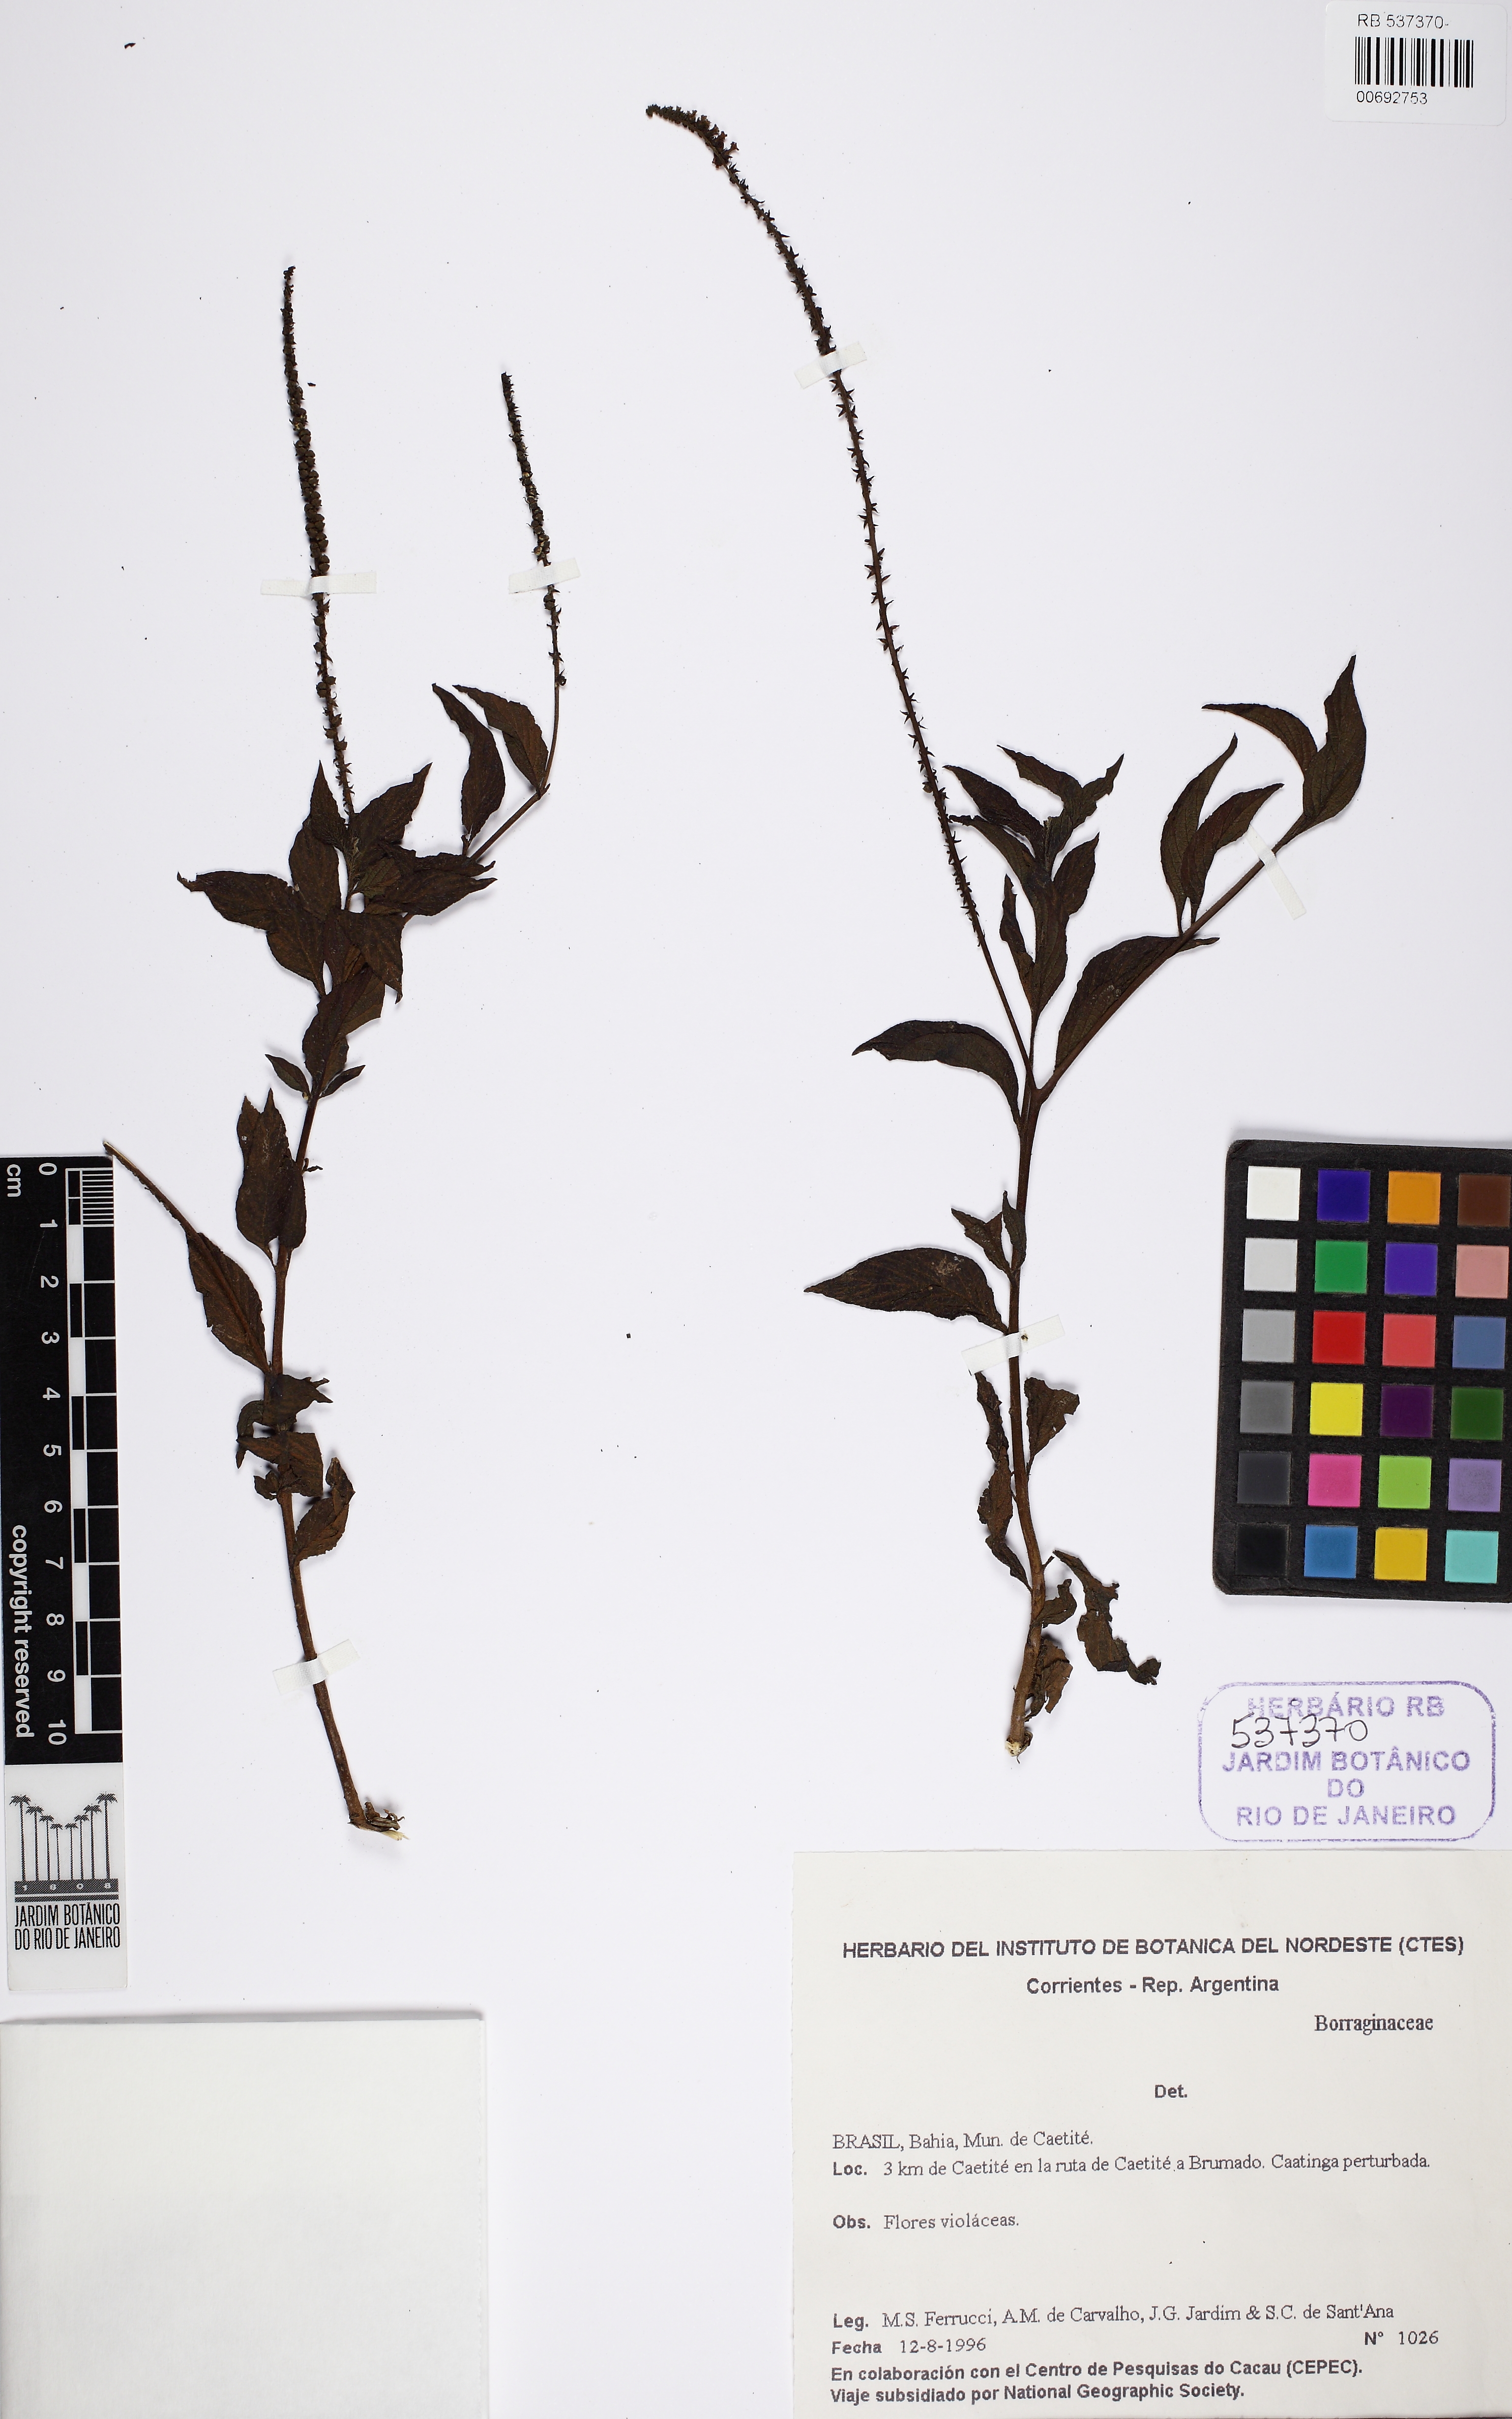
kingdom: Plantae
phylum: Tracheophyta
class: Magnoliopsida
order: Boraginales
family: Heliotropiaceae
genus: Heliotropium
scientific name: Heliotropium angiospermum
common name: Eye bright
